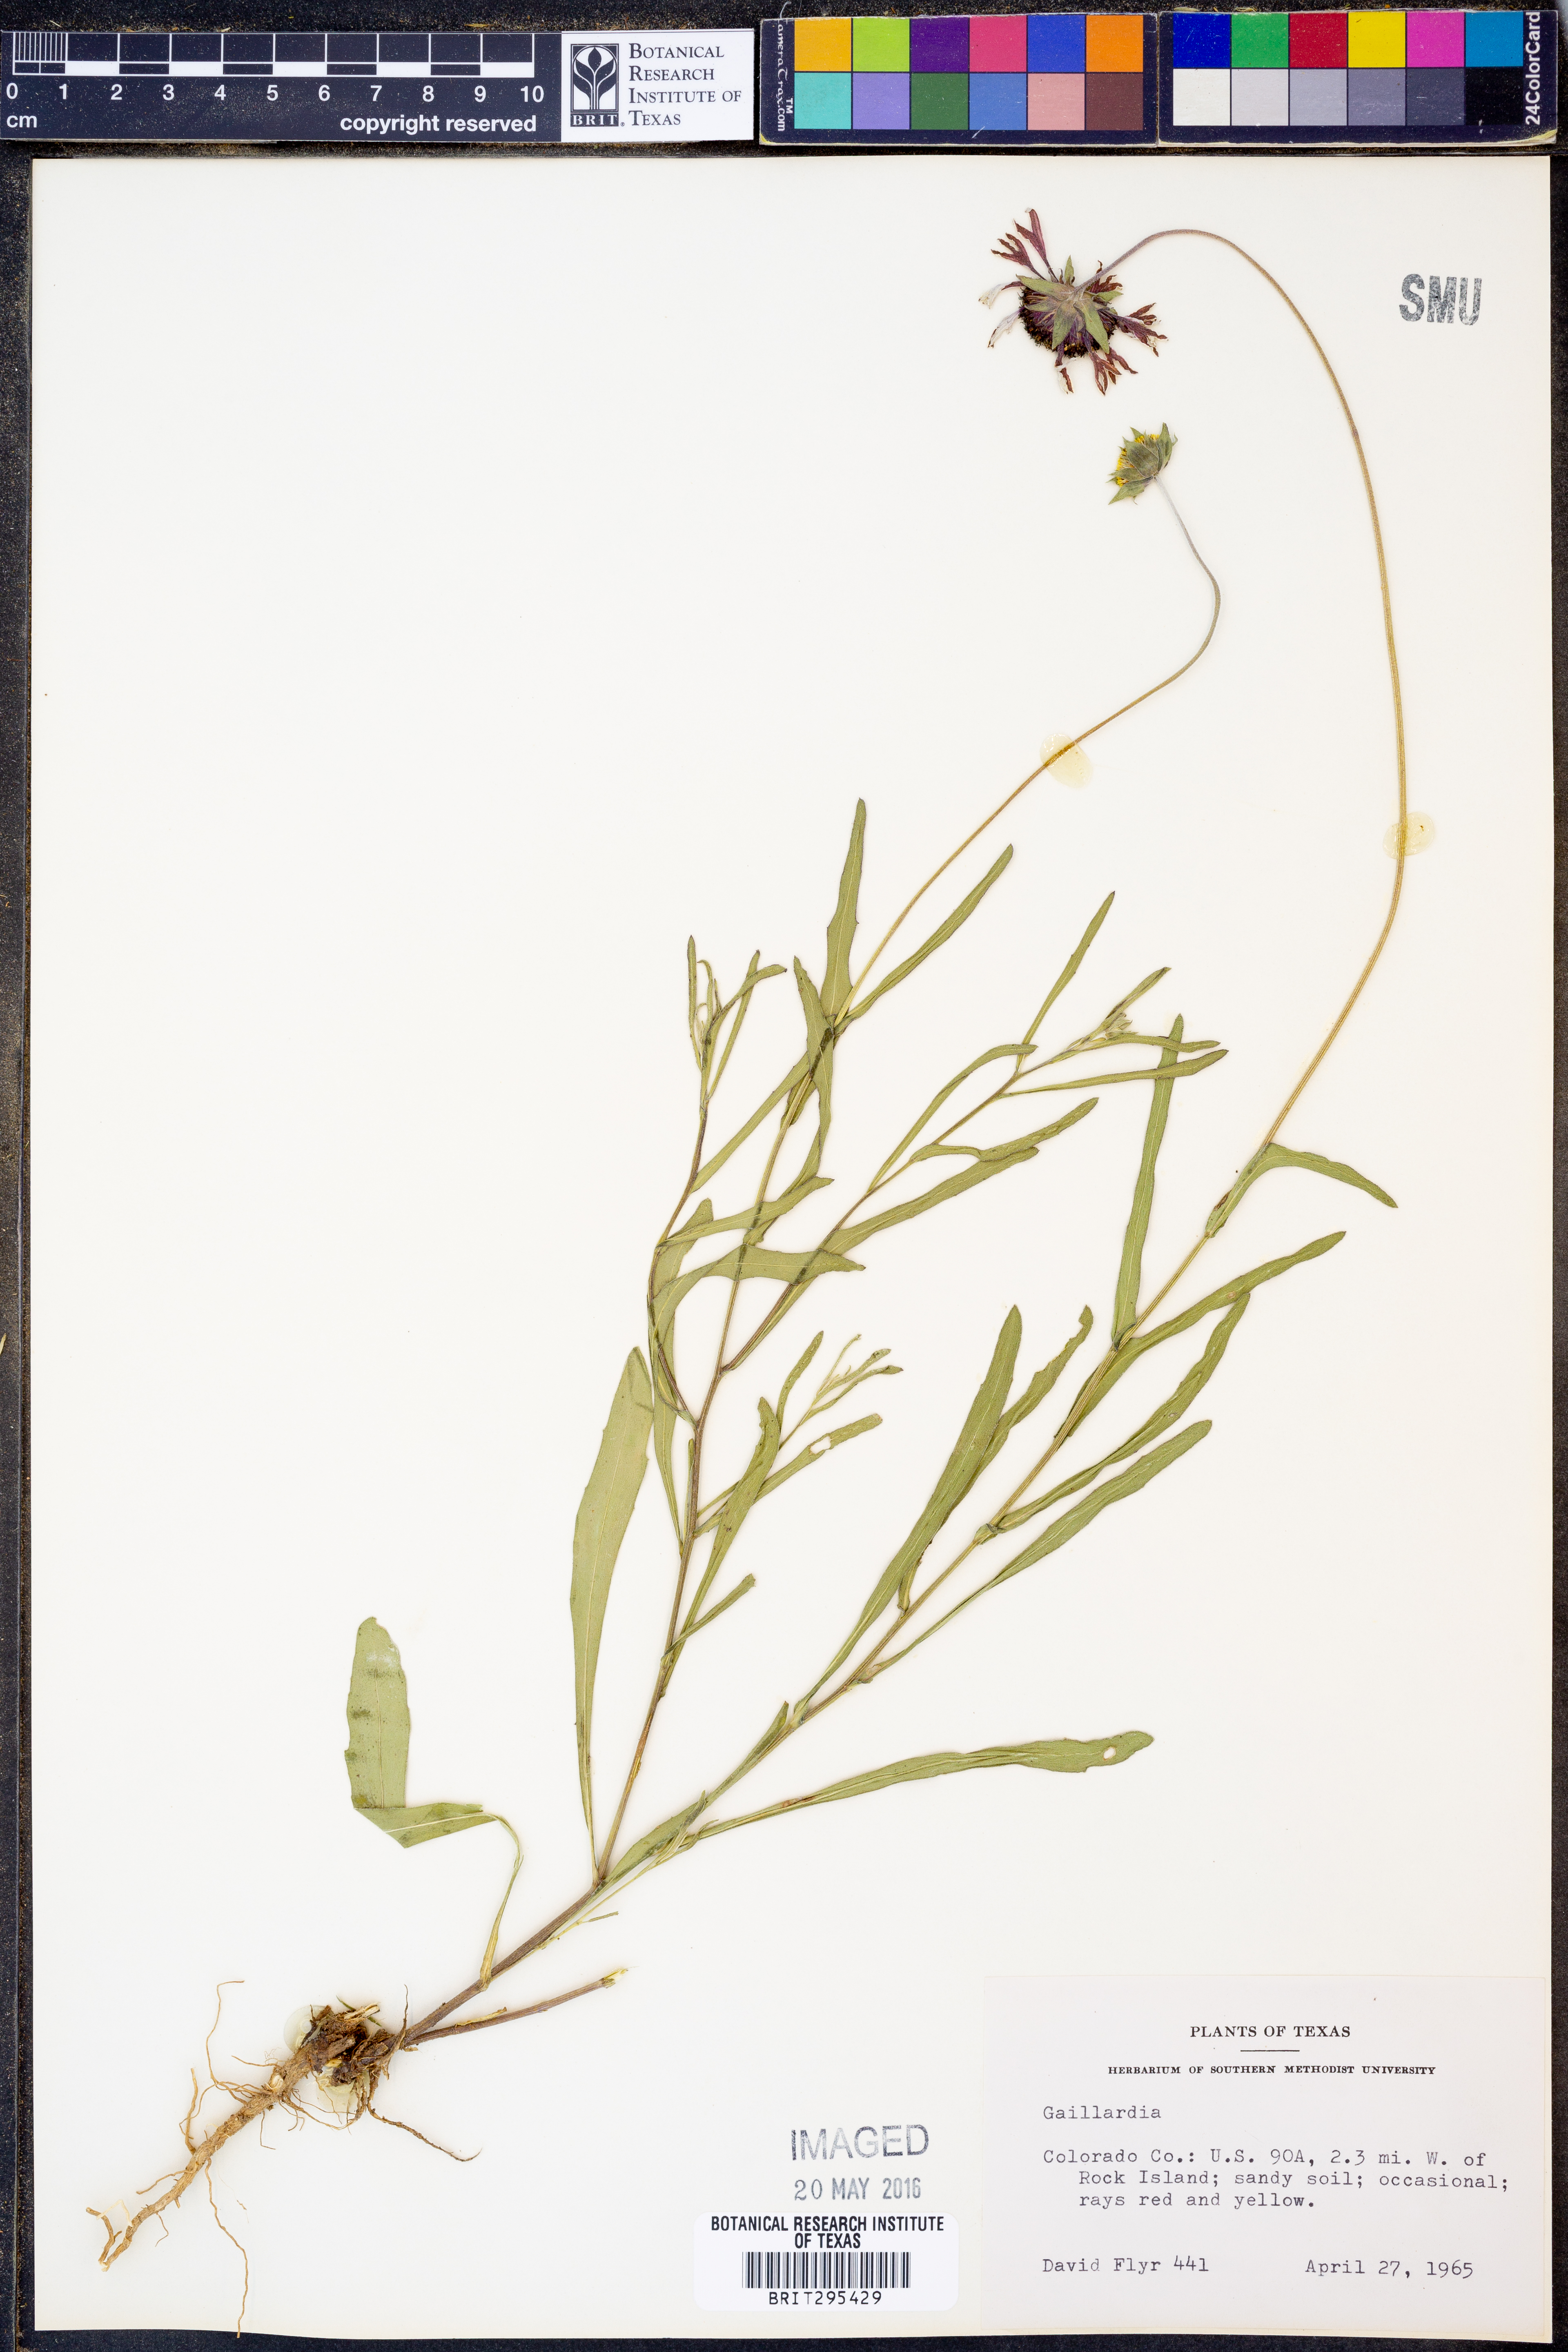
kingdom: Plantae
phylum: Tracheophyta
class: Magnoliopsida
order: Asterales
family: Asteraceae
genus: Gaillardia
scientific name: Gaillardia
